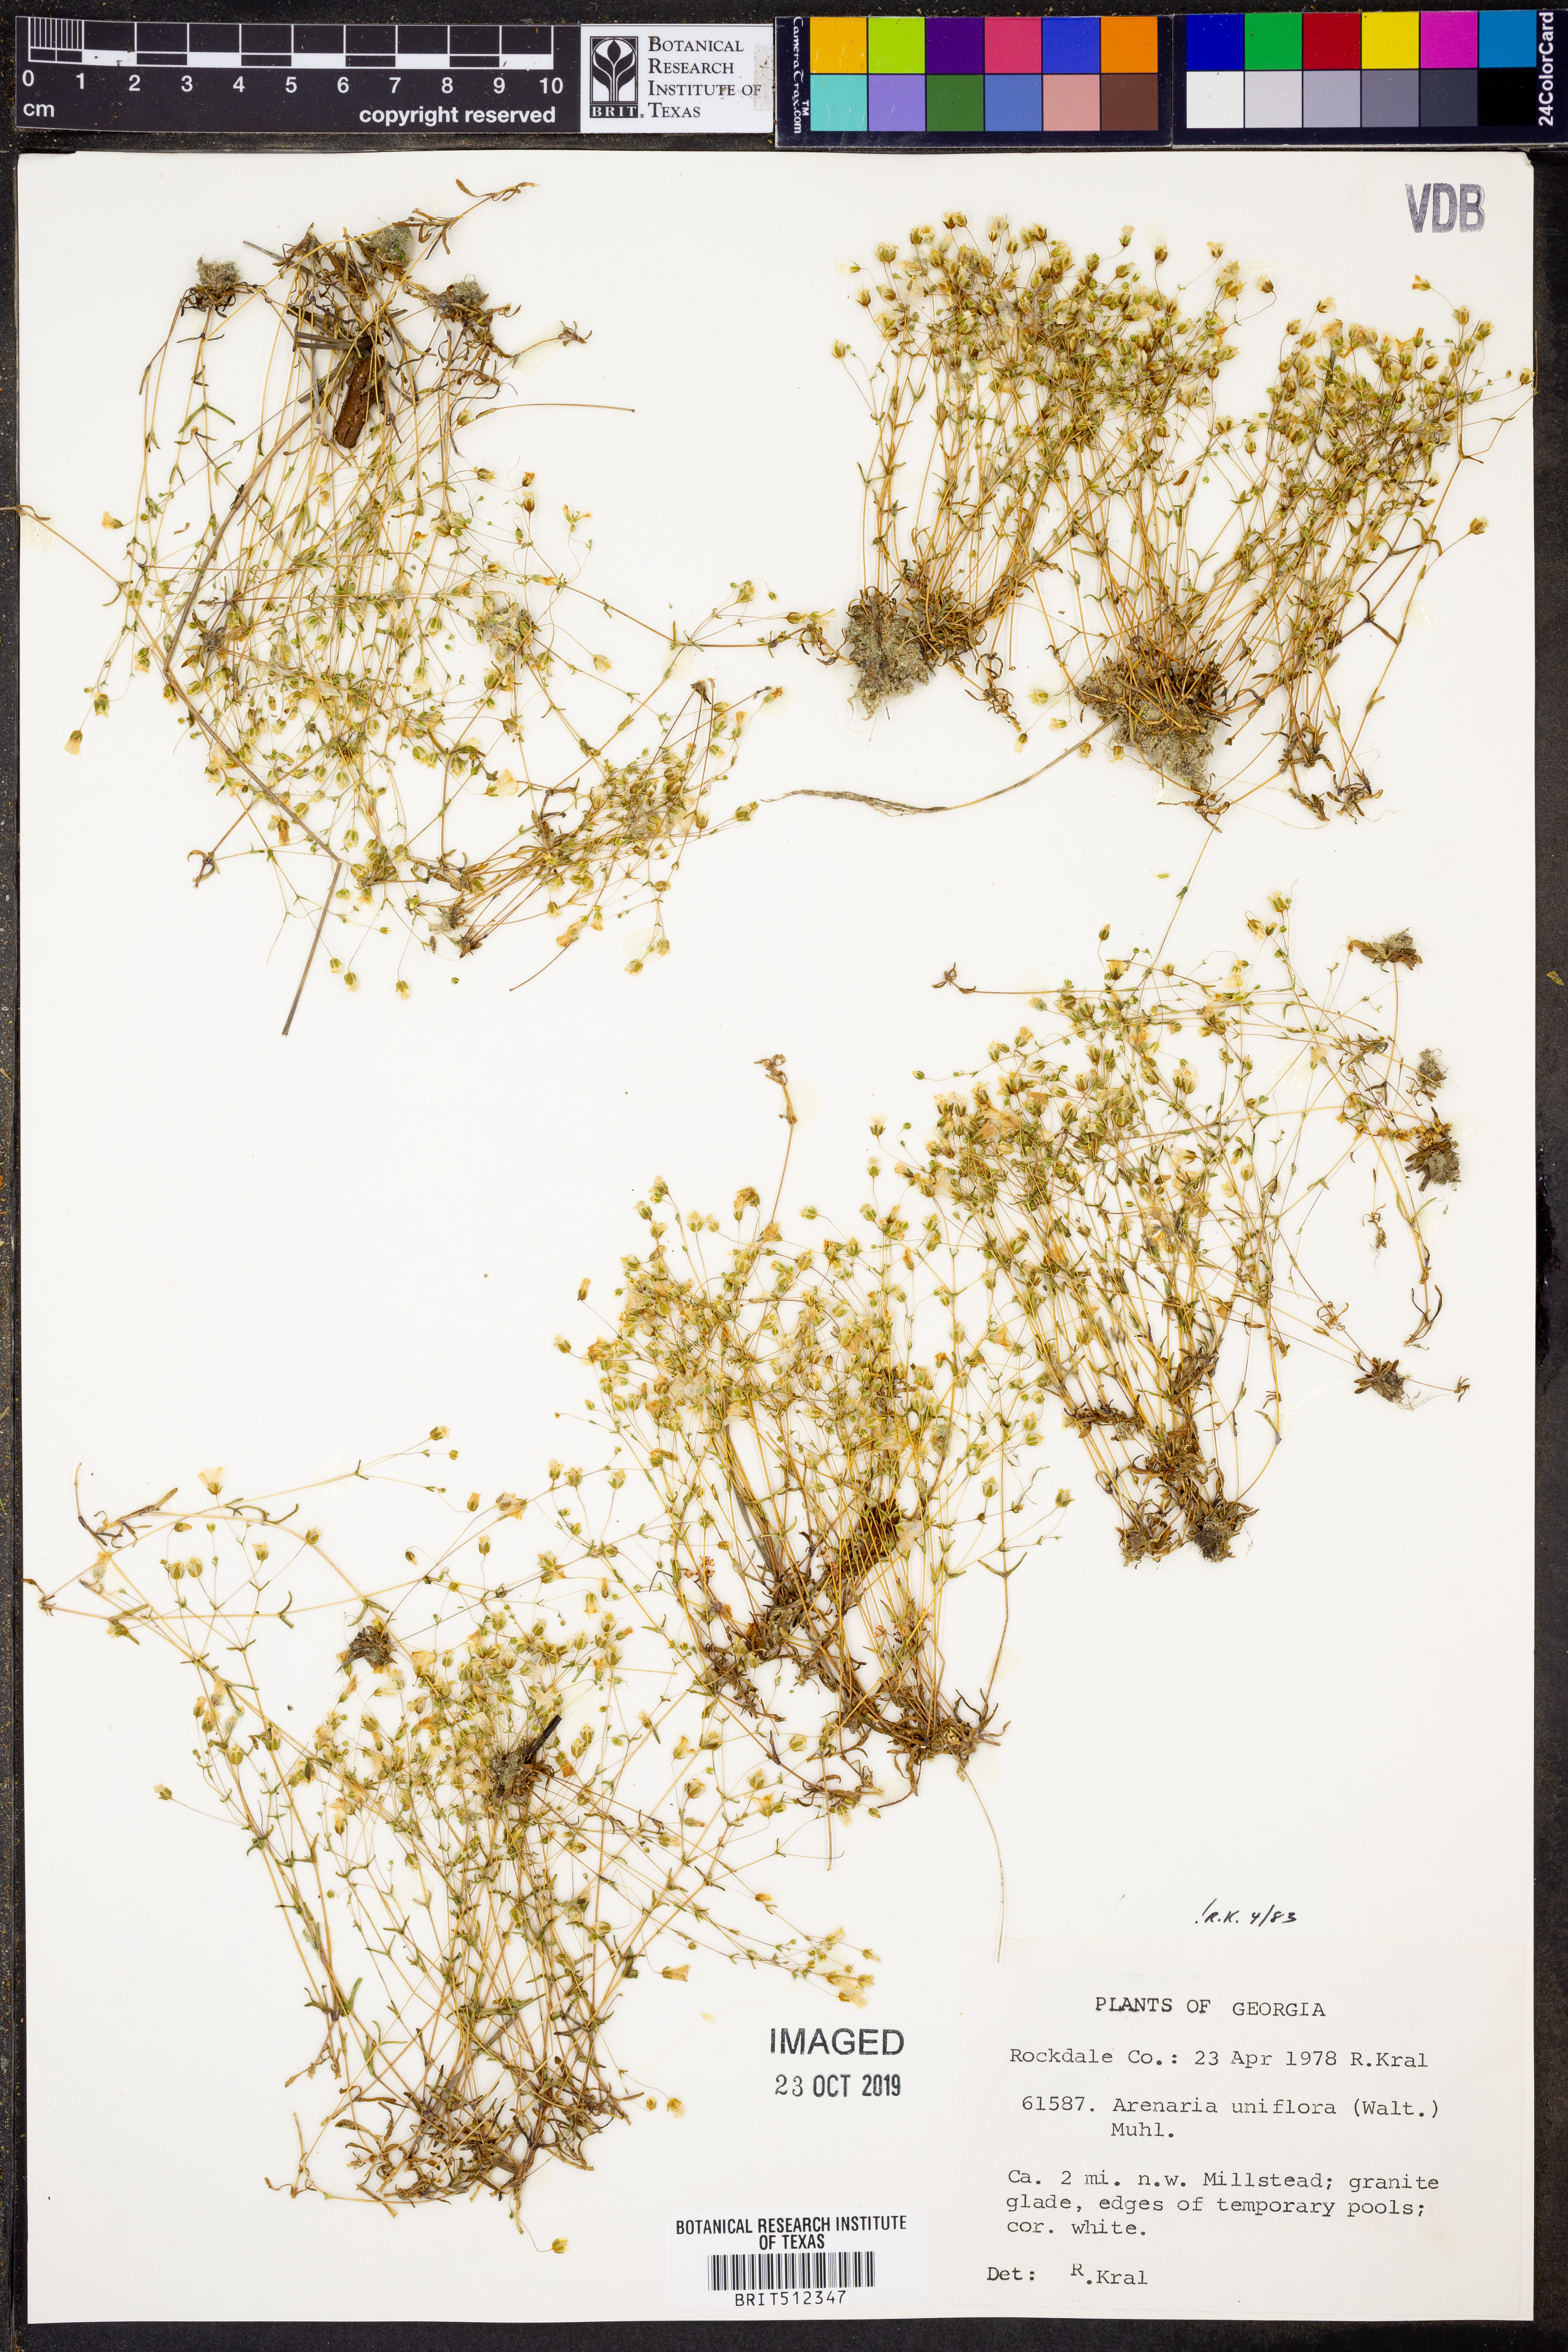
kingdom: Plantae
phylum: Tracheophyta
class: Magnoliopsida
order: Caryophyllales
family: Caryophyllaceae
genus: Geocarpon
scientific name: Geocarpon uniflorum
